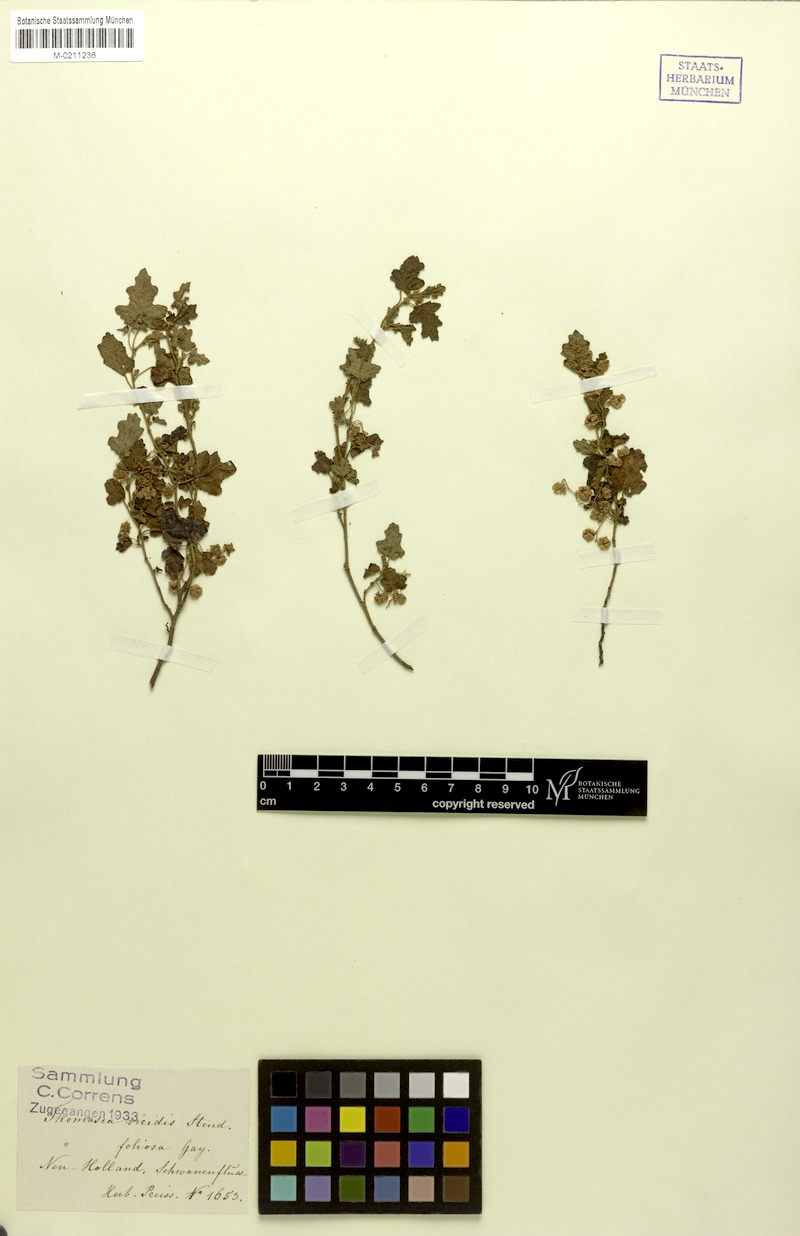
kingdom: Plantae
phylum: Tracheophyta
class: Magnoliopsida
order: Malvales
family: Malvaceae
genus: Thomasia
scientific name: Thomasia foliosa
